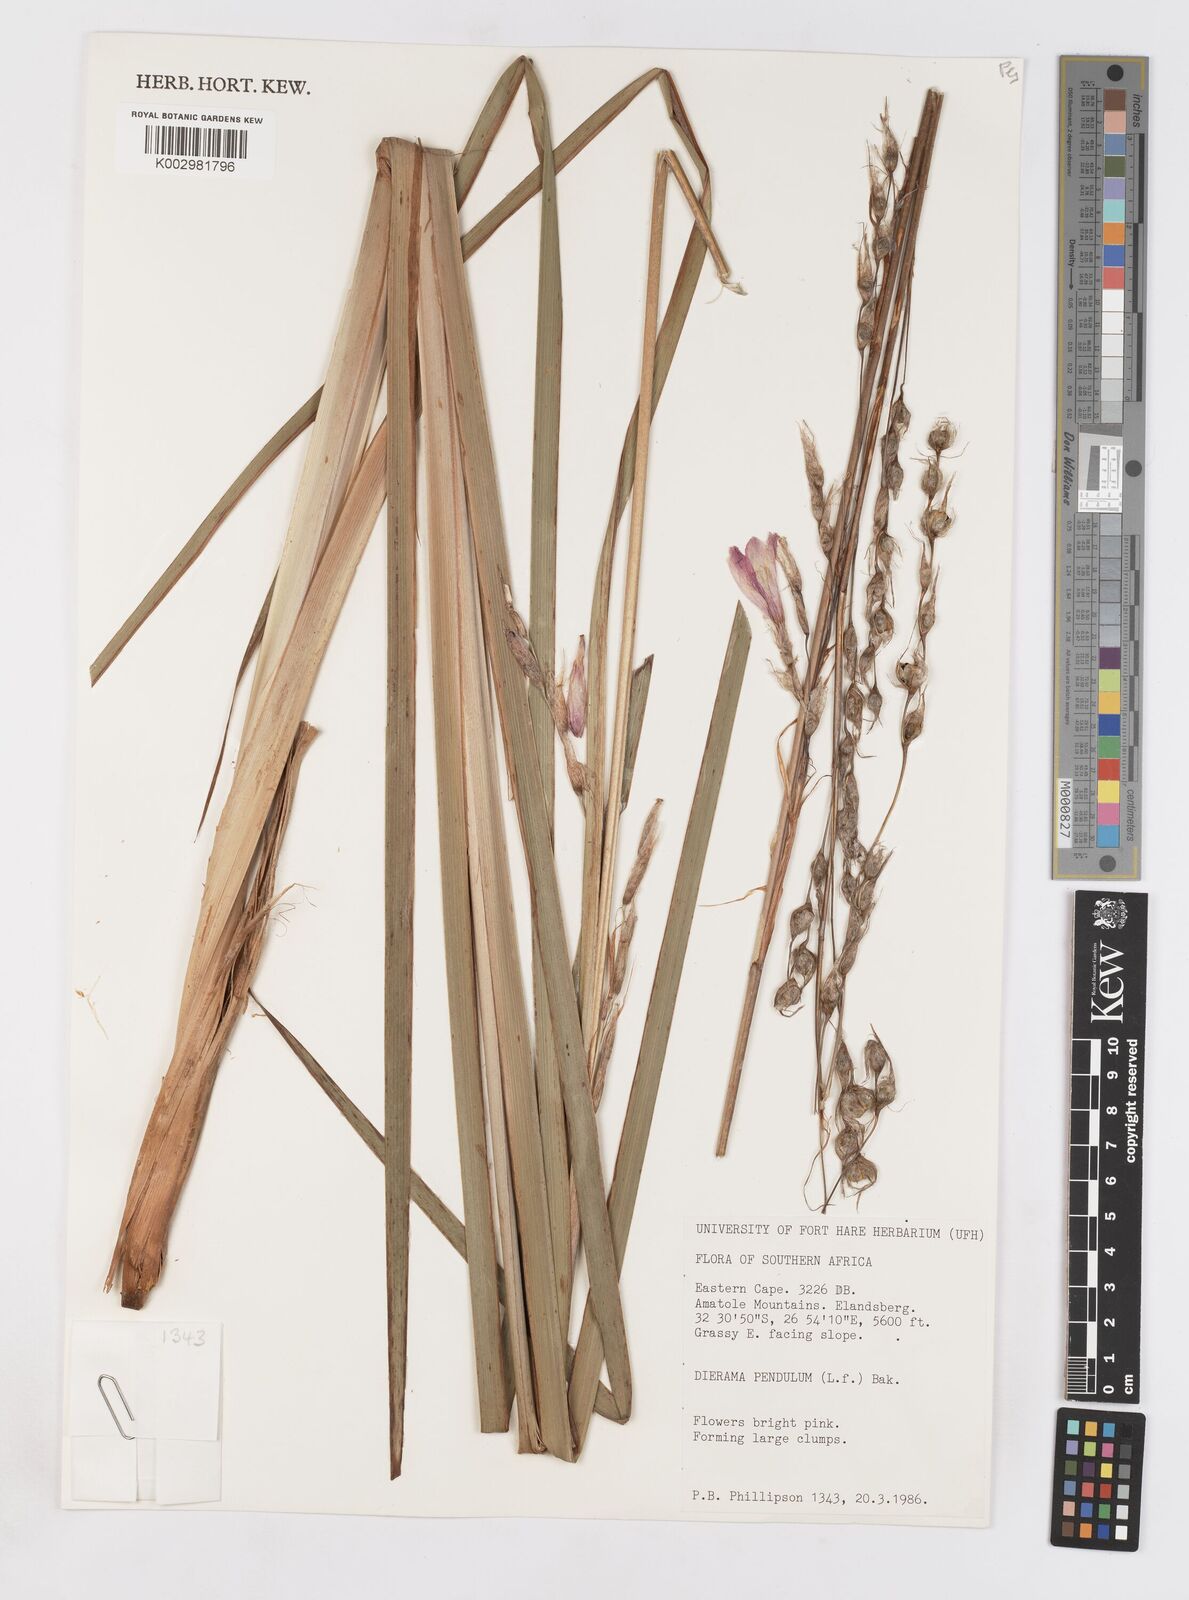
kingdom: Plantae
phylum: Tracheophyta
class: Liliopsida
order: Asparagales
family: Iridaceae
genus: Dierama
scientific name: Dierama pendulum
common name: Grassy-bell
